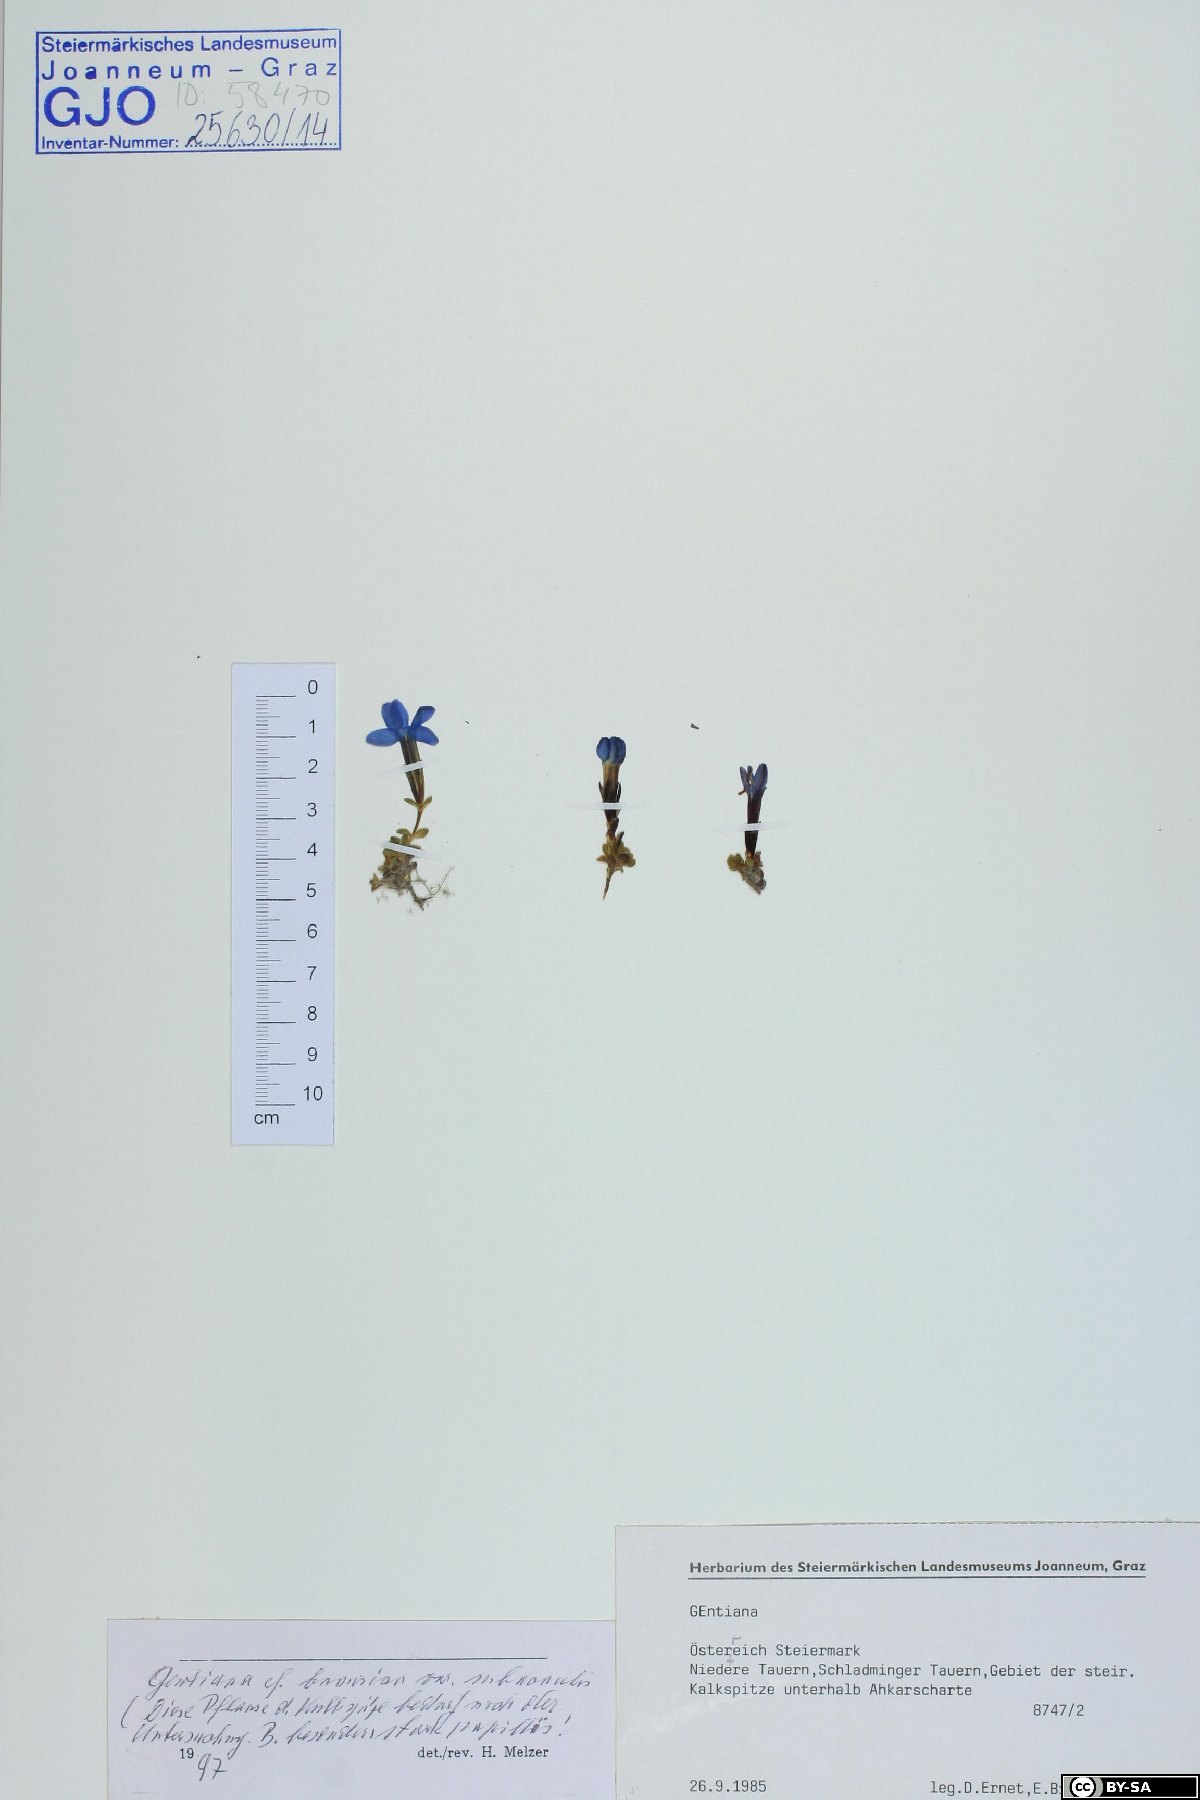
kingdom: Plantae
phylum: Tracheophyta
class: Magnoliopsida
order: Gentianales
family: Gentianaceae
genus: Gentiana
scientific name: Gentiana bavarica
